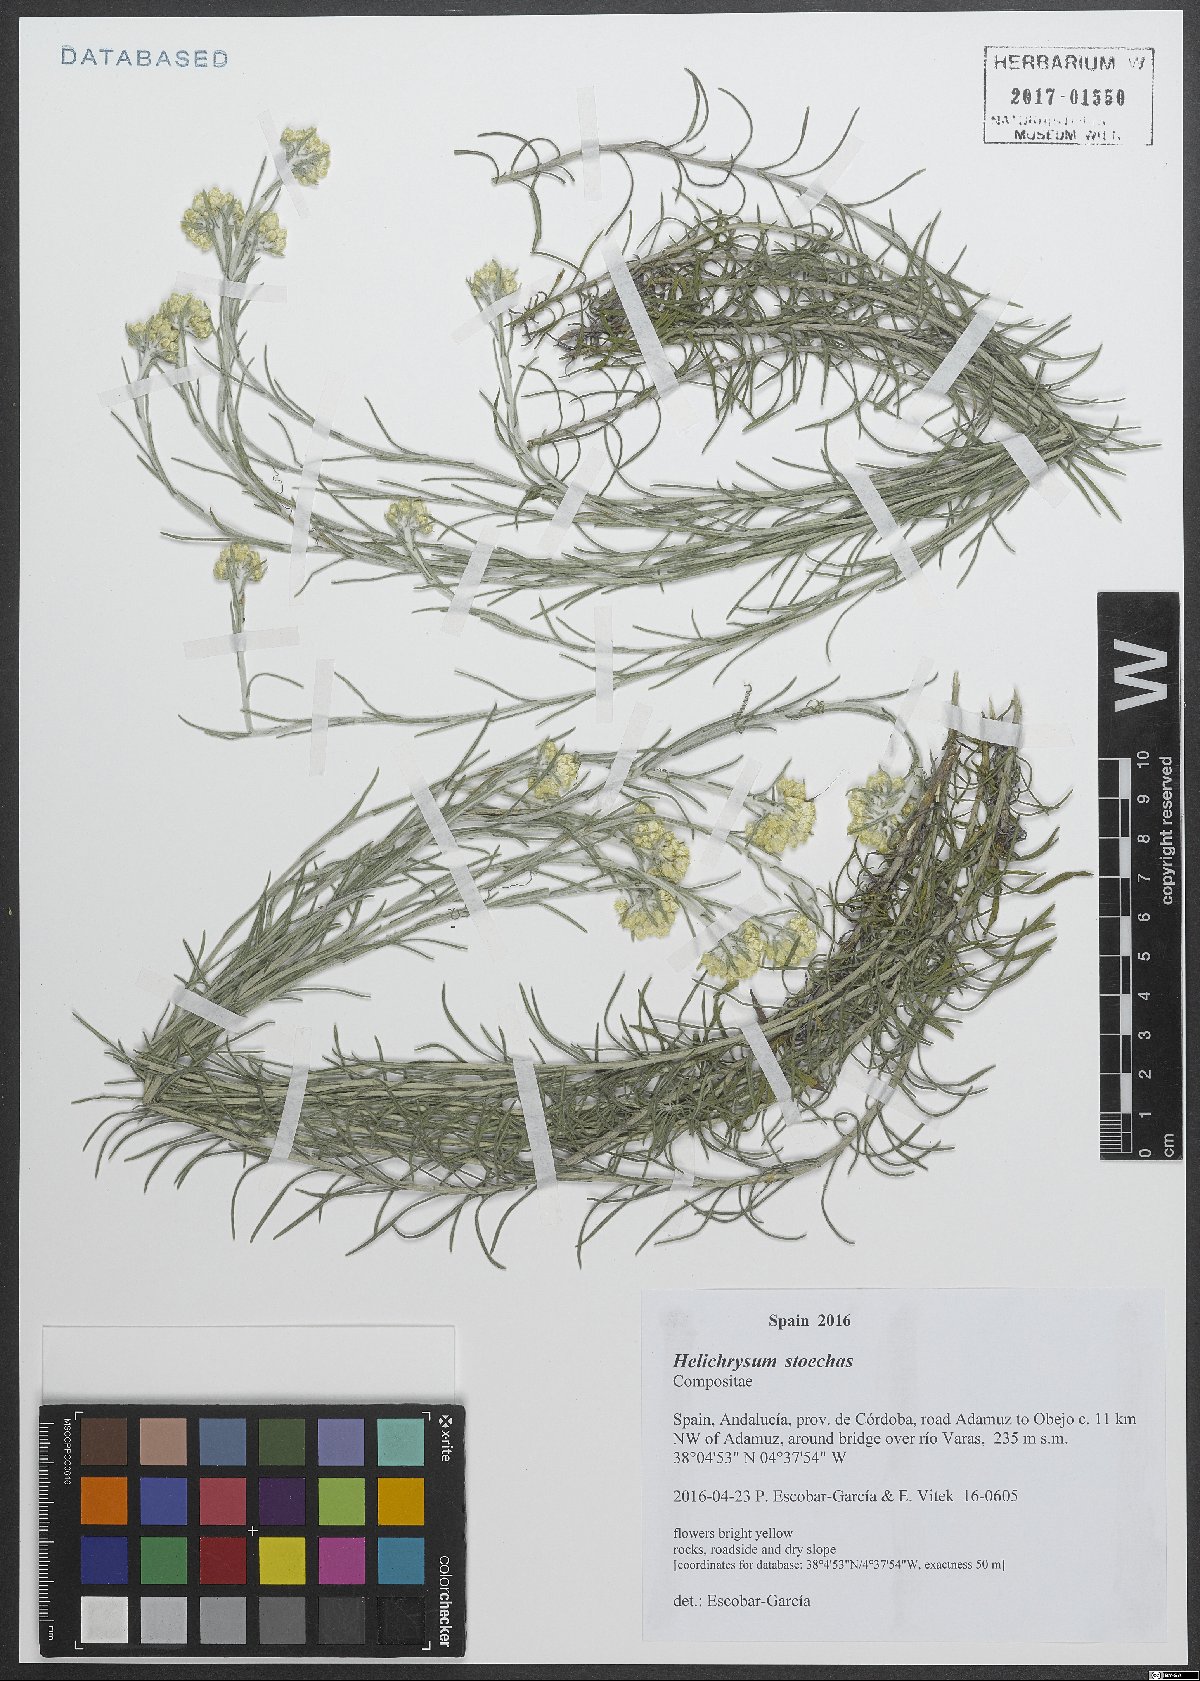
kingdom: Plantae
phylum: Tracheophyta
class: Magnoliopsida
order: Asterales
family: Asteraceae
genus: Helichrysum
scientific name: Helichrysum stoechas
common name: Goldilocks
